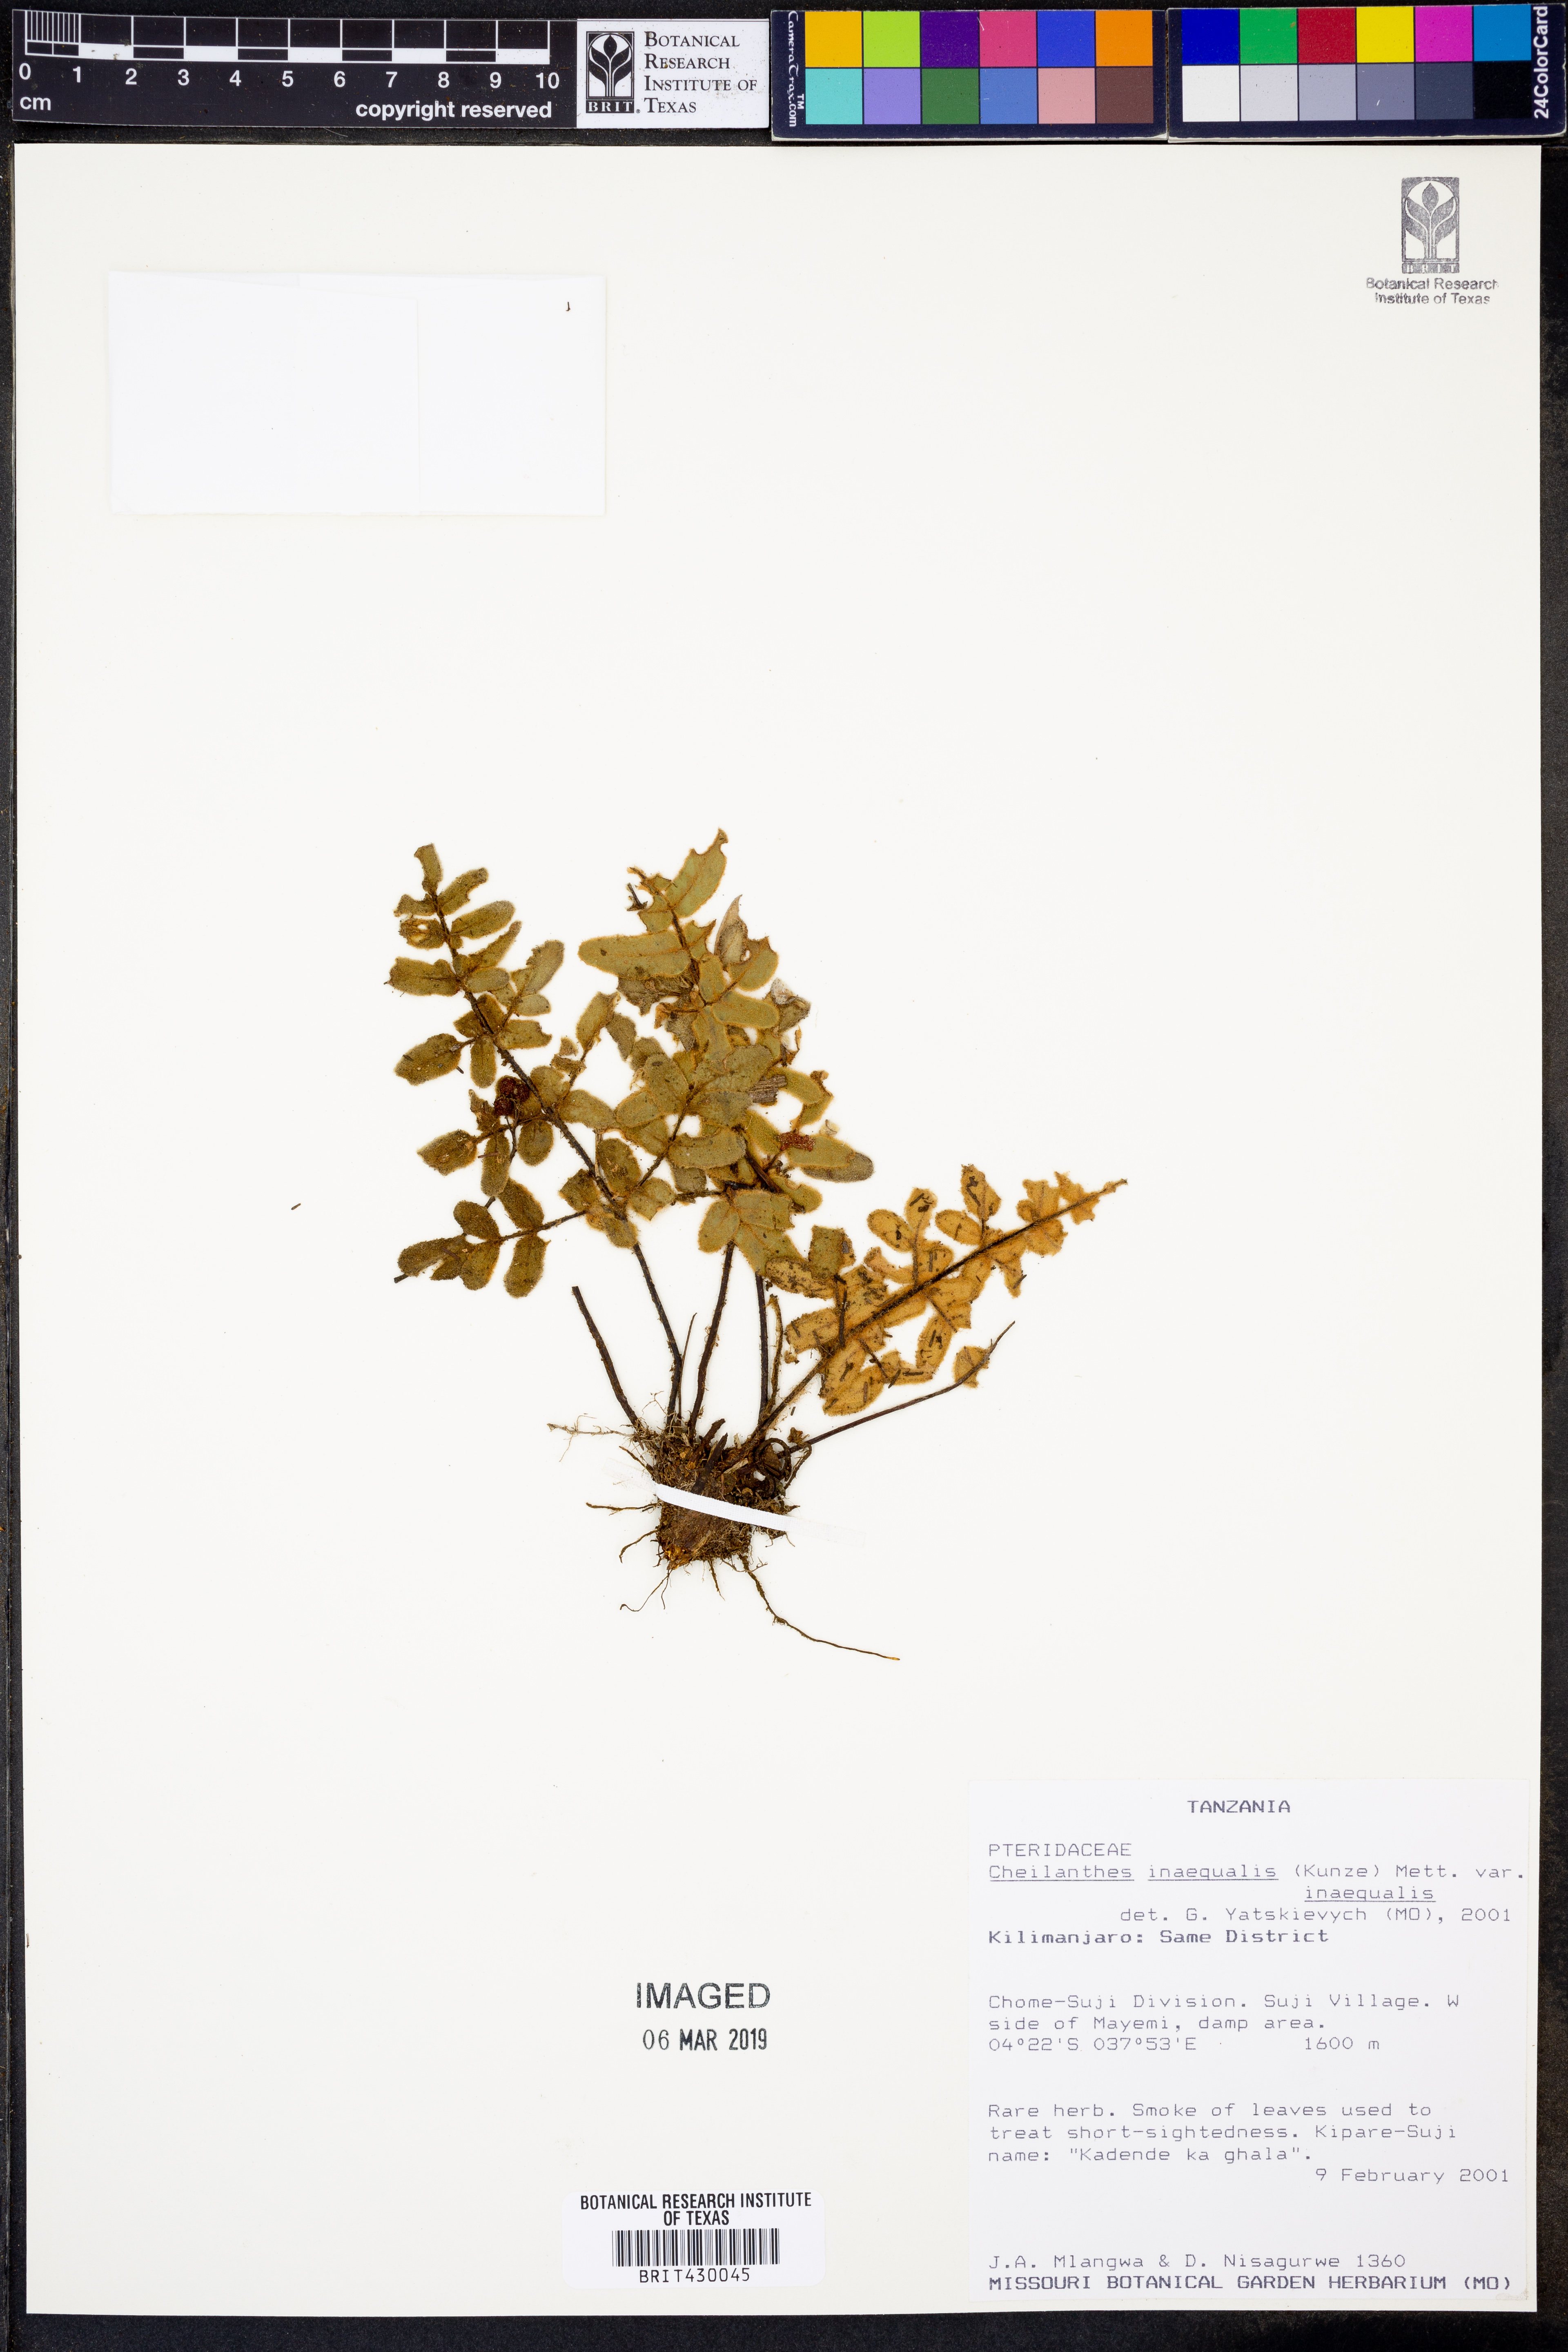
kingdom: Plantae
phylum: Tracheophyta
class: Polypodiopsida
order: Polypodiales
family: Pteridaceae
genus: Cheilanthes
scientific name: Cheilanthes inaequalis
